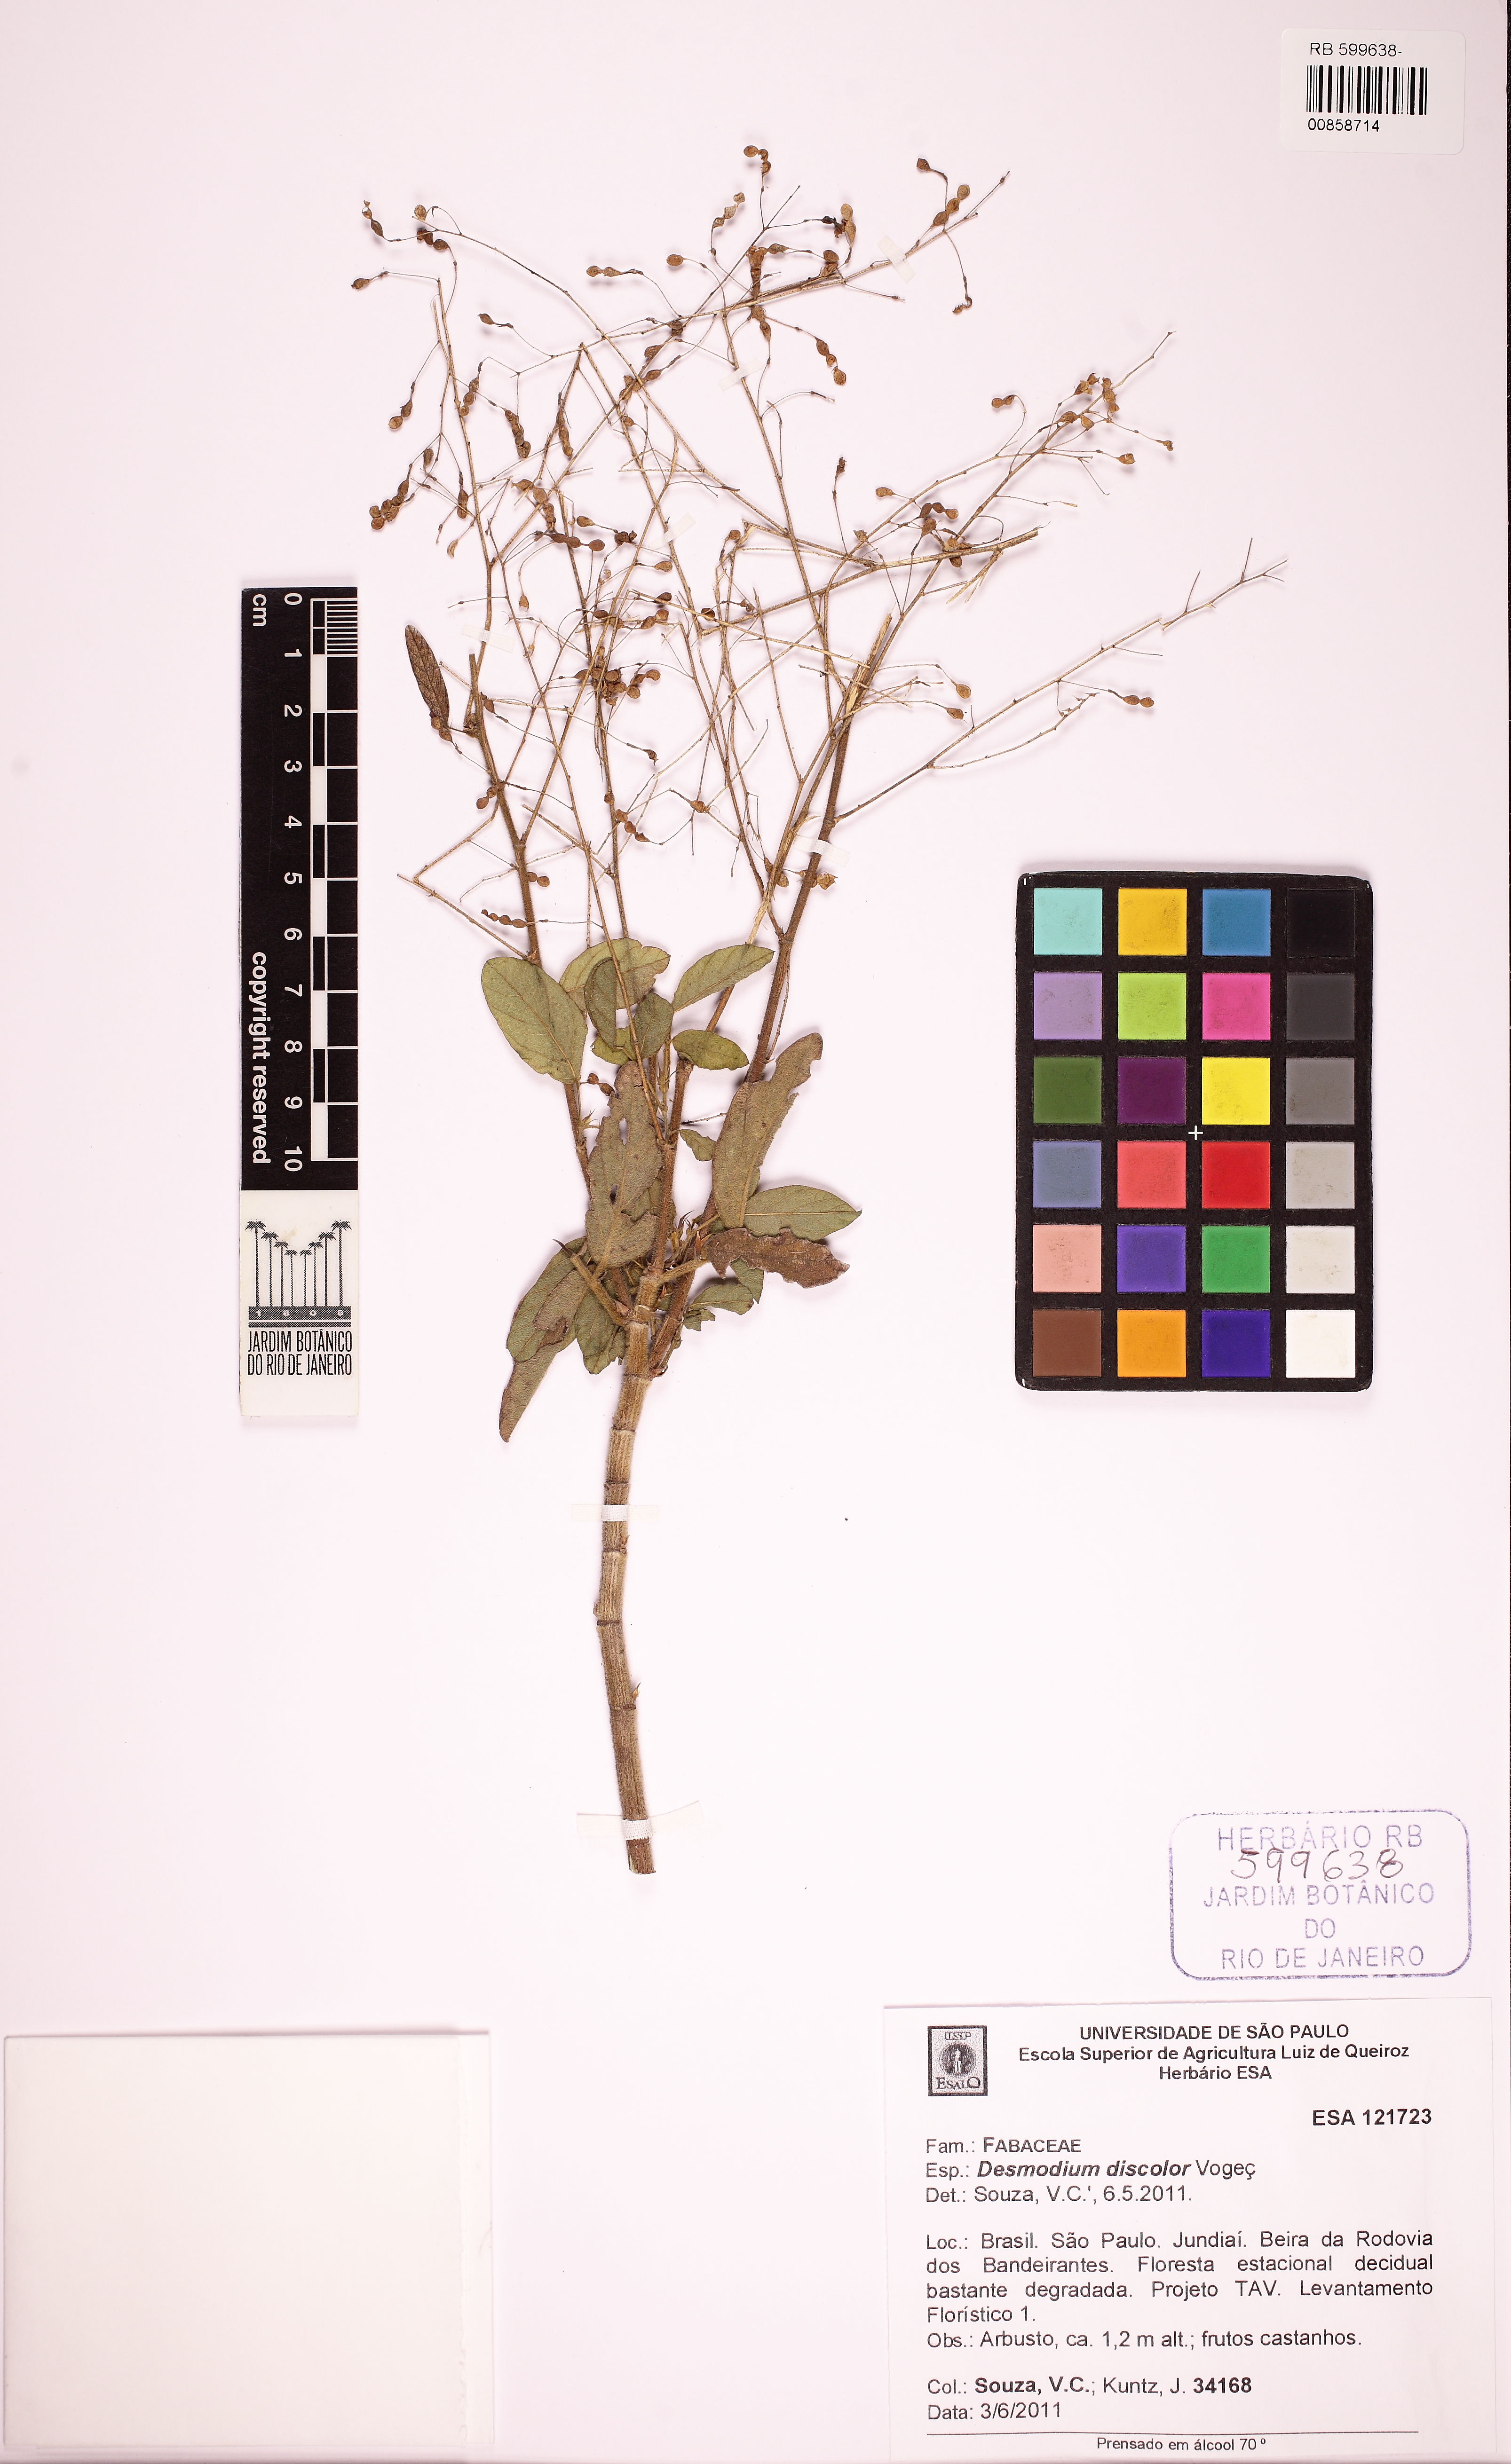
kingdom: Plantae
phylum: Tracheophyta
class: Magnoliopsida
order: Fabales
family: Fabaceae
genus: Desmodium
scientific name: Desmodium subsecundum
